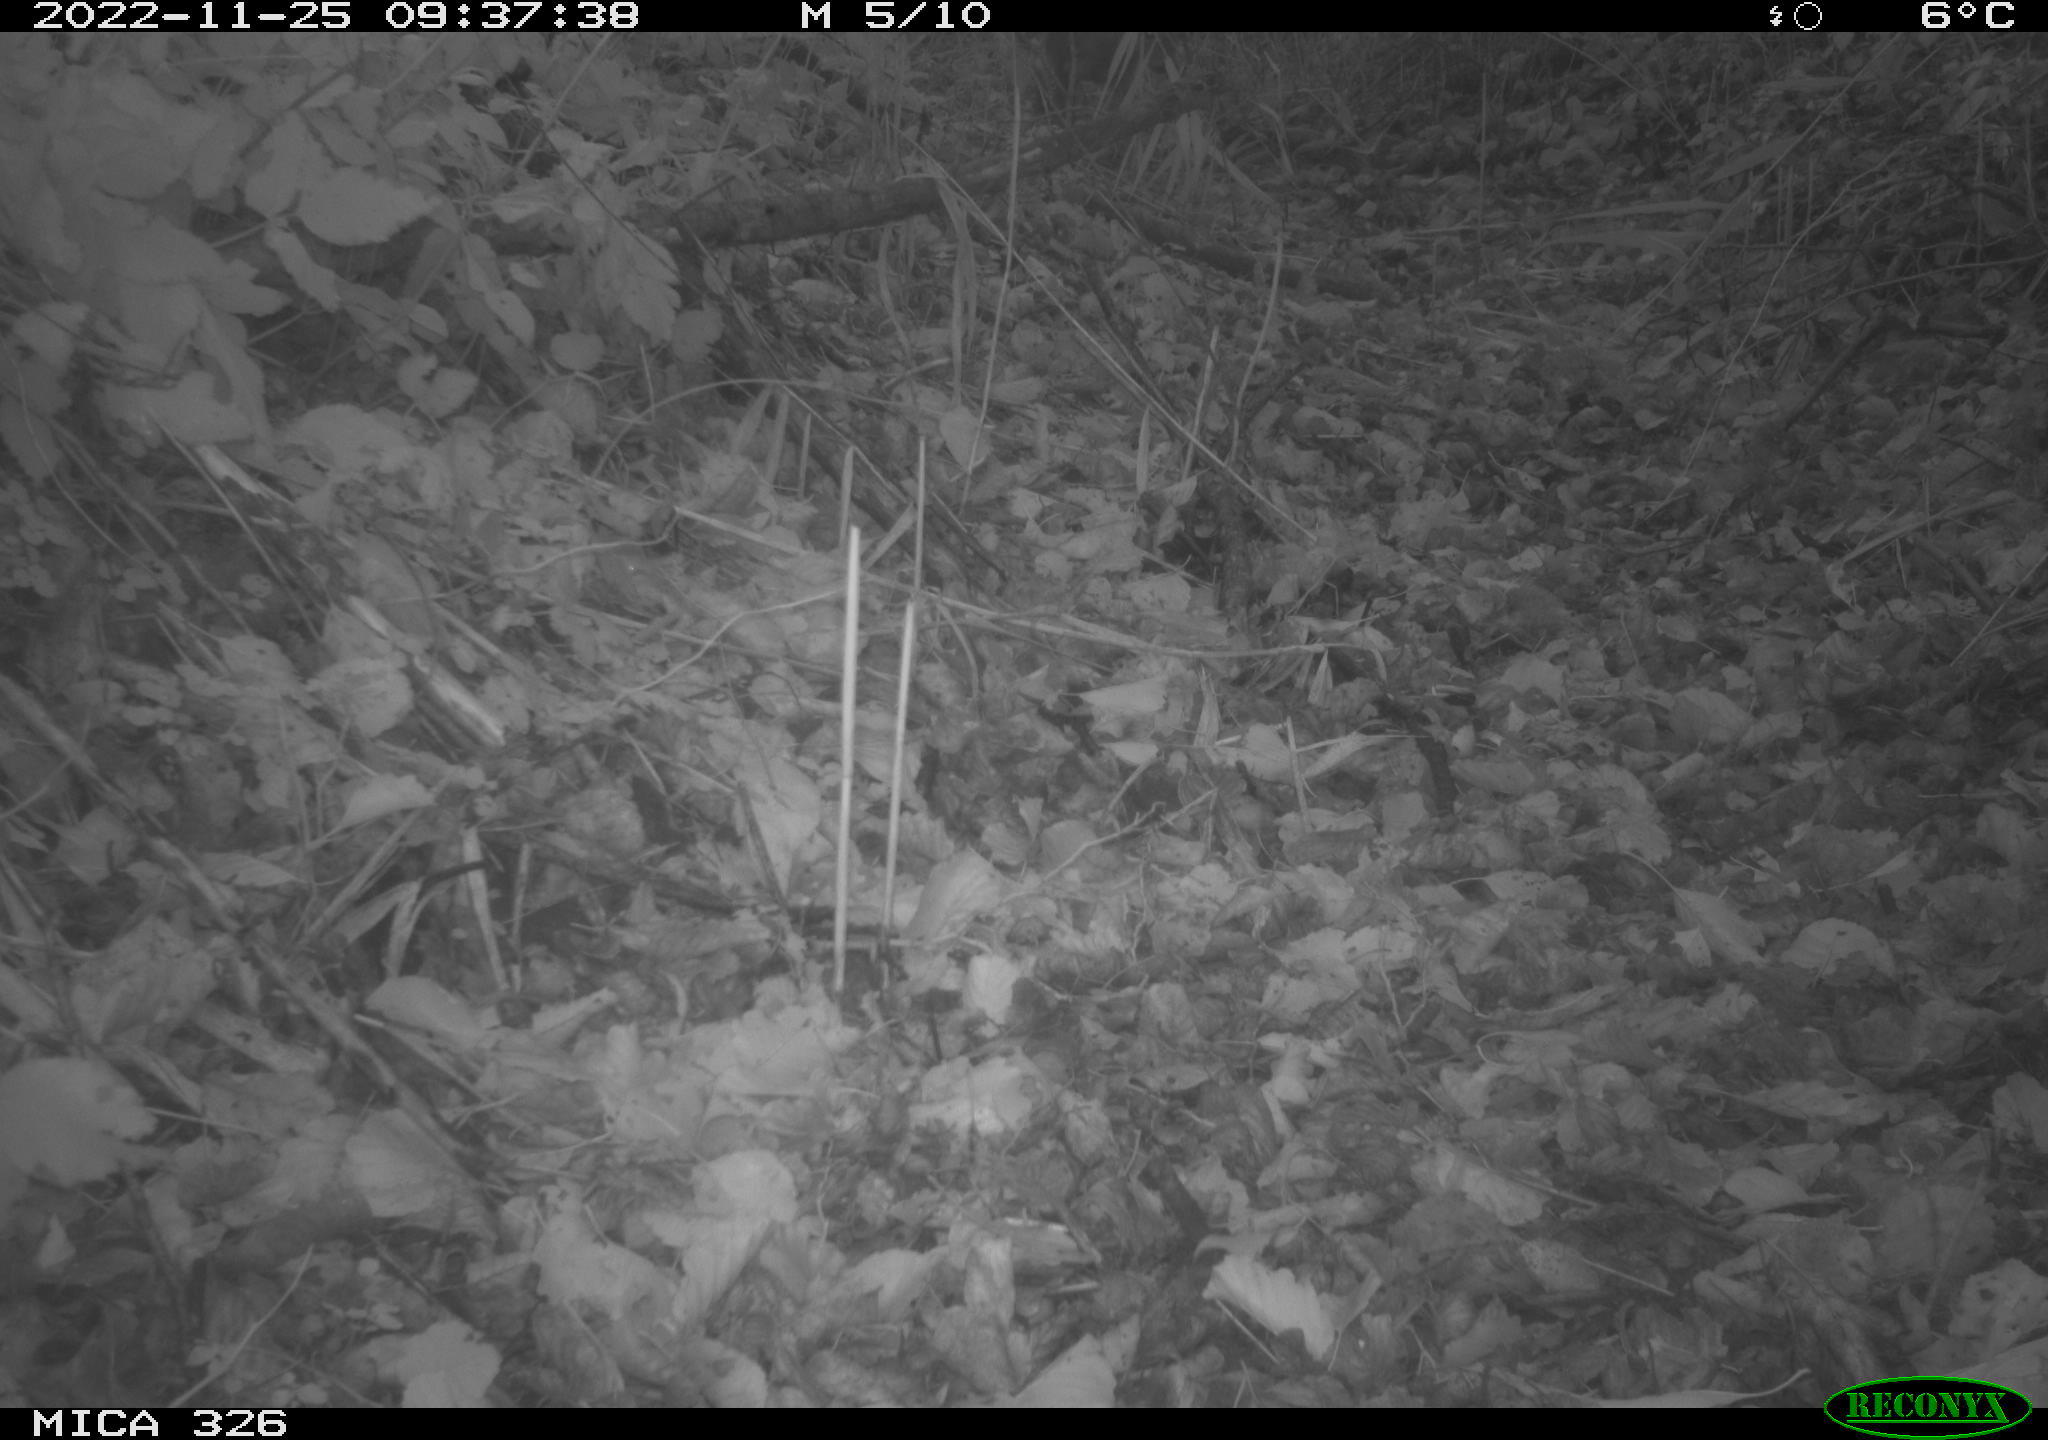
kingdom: Animalia
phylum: Chordata
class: Mammalia
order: Artiodactyla
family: Cervidae
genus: Capreolus
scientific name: Capreolus capreolus
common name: Western roe deer
